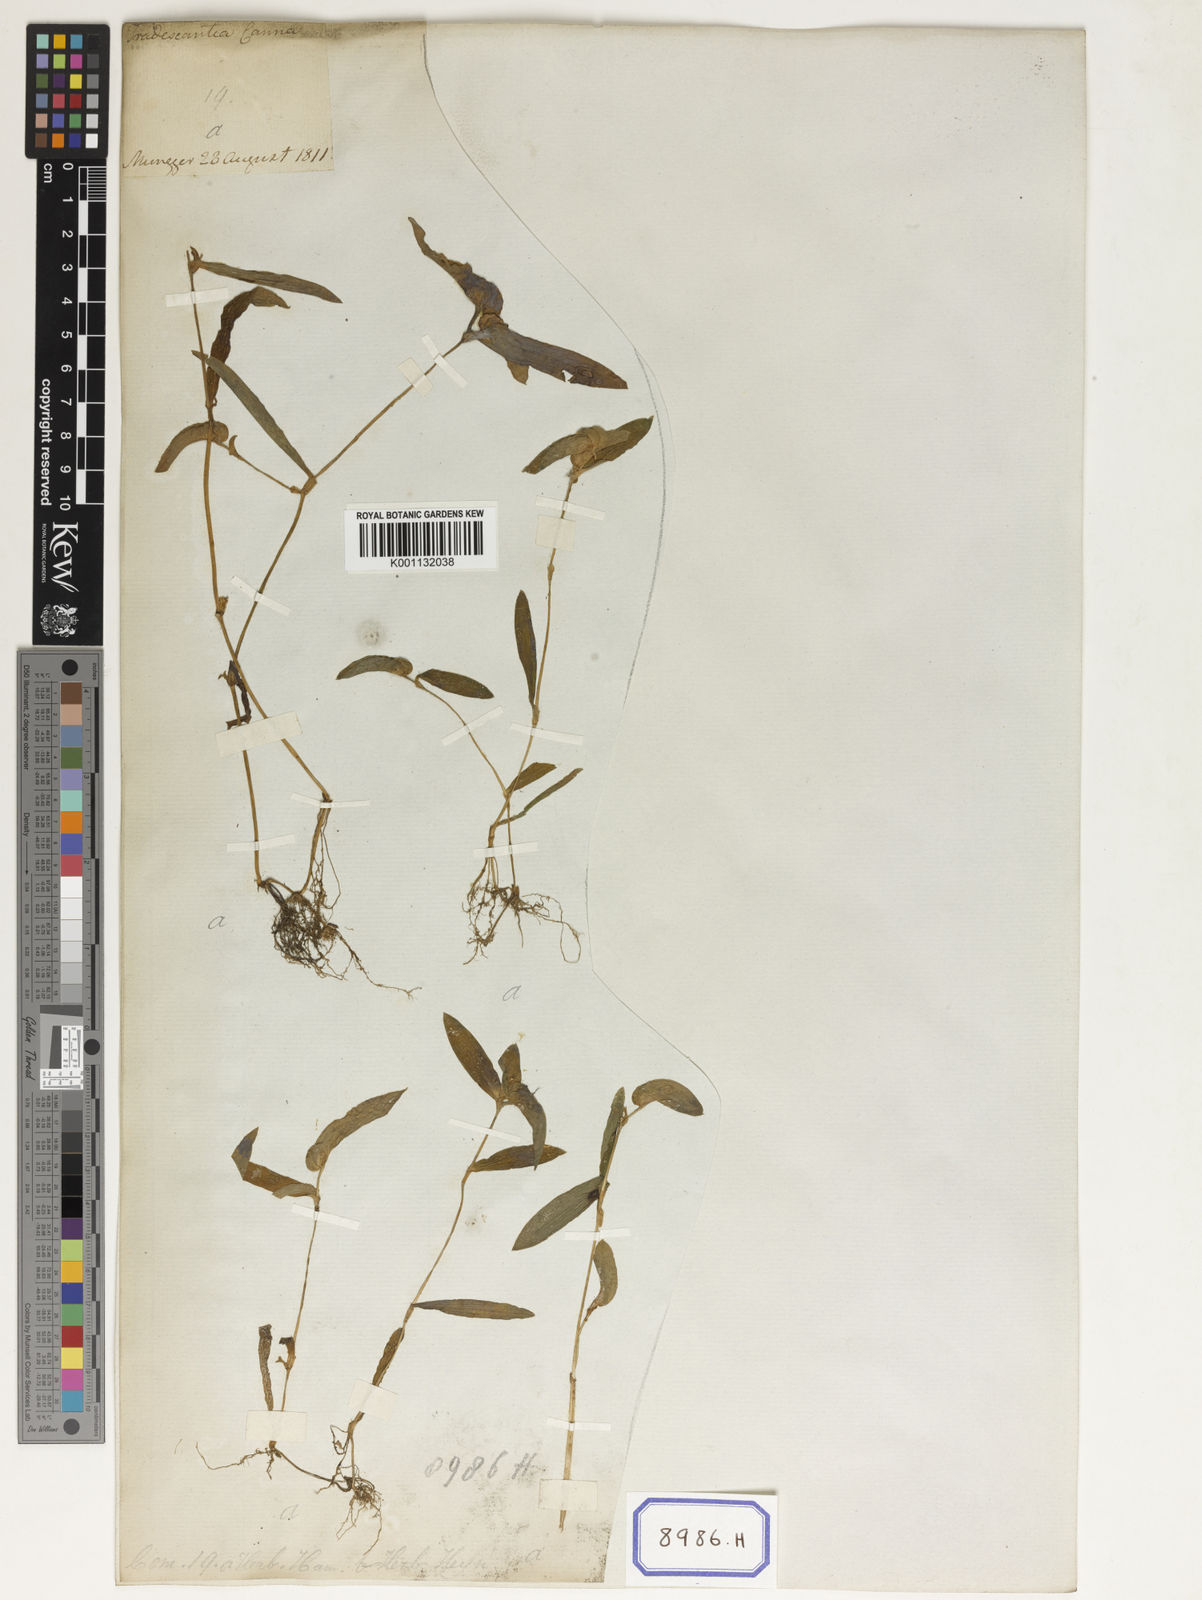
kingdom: Plantae
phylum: Tracheophyta
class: Liliopsida
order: Commelinales
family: Commelinaceae
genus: Cyanotis
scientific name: Cyanotis cristata
